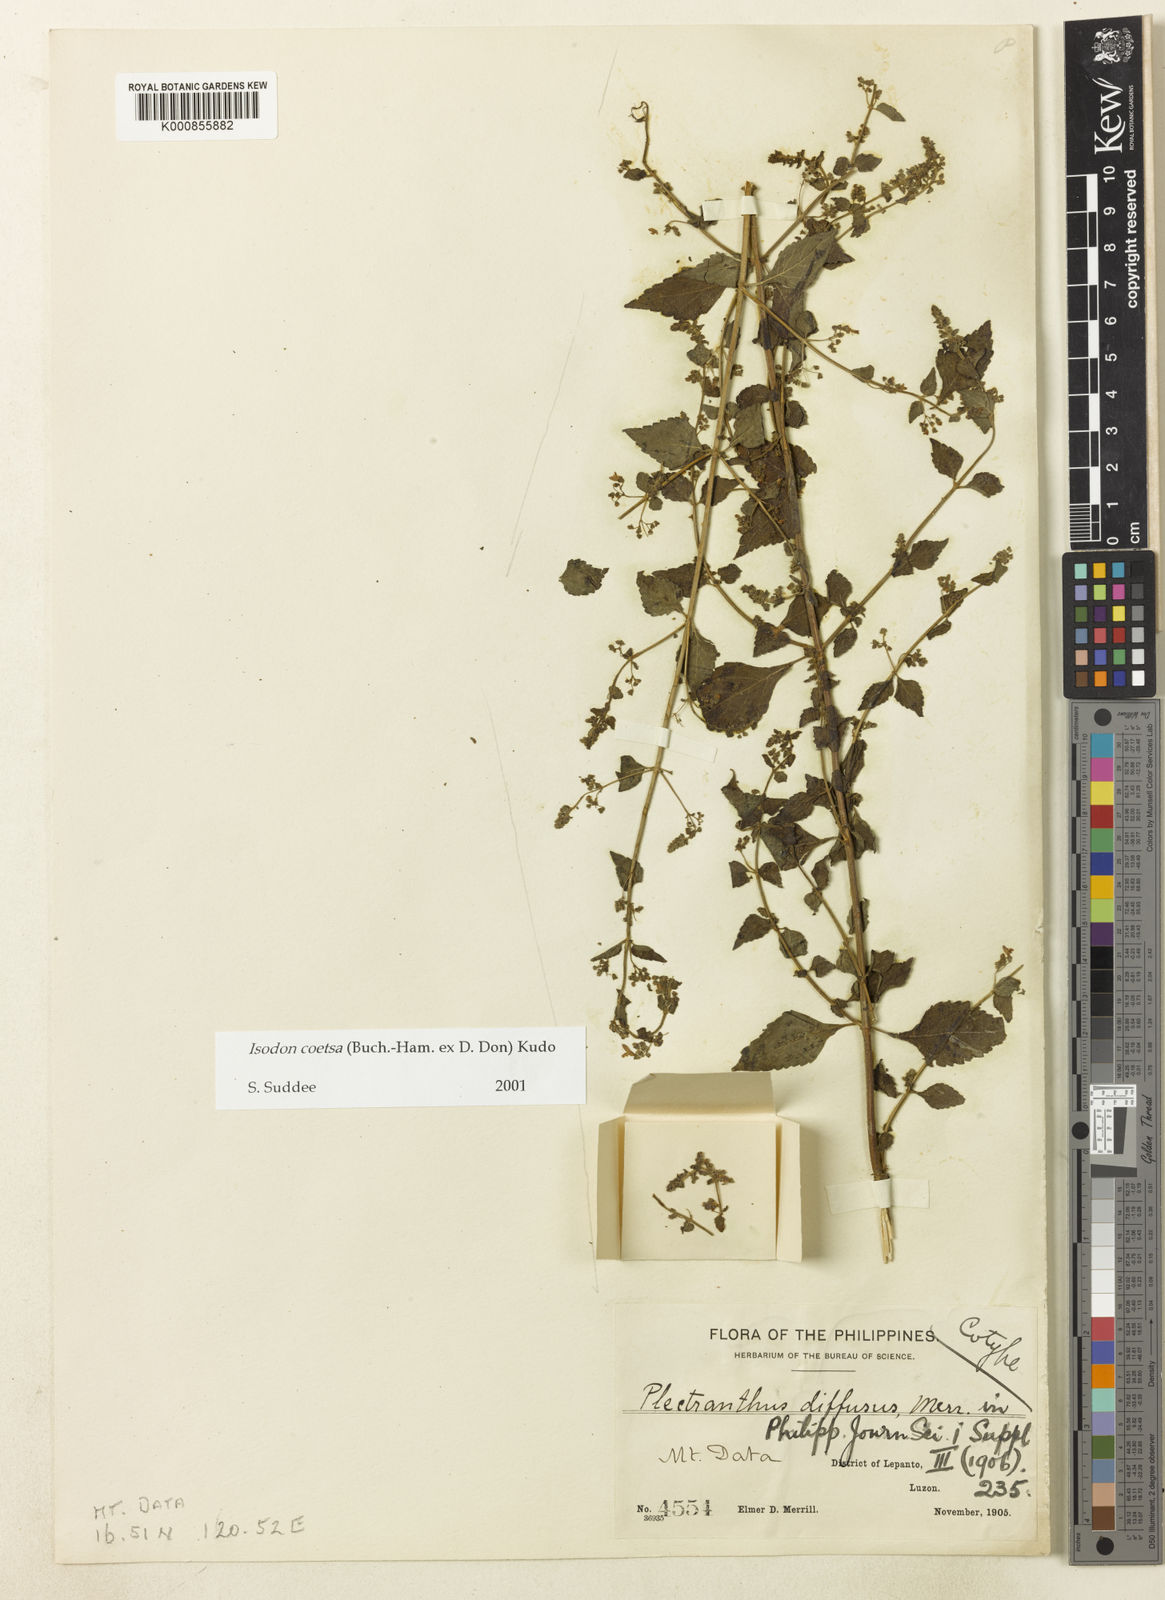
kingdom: Plantae
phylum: Tracheophyta
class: Magnoliopsida
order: Lamiales
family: Lamiaceae
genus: Isodon
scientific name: Isodon
